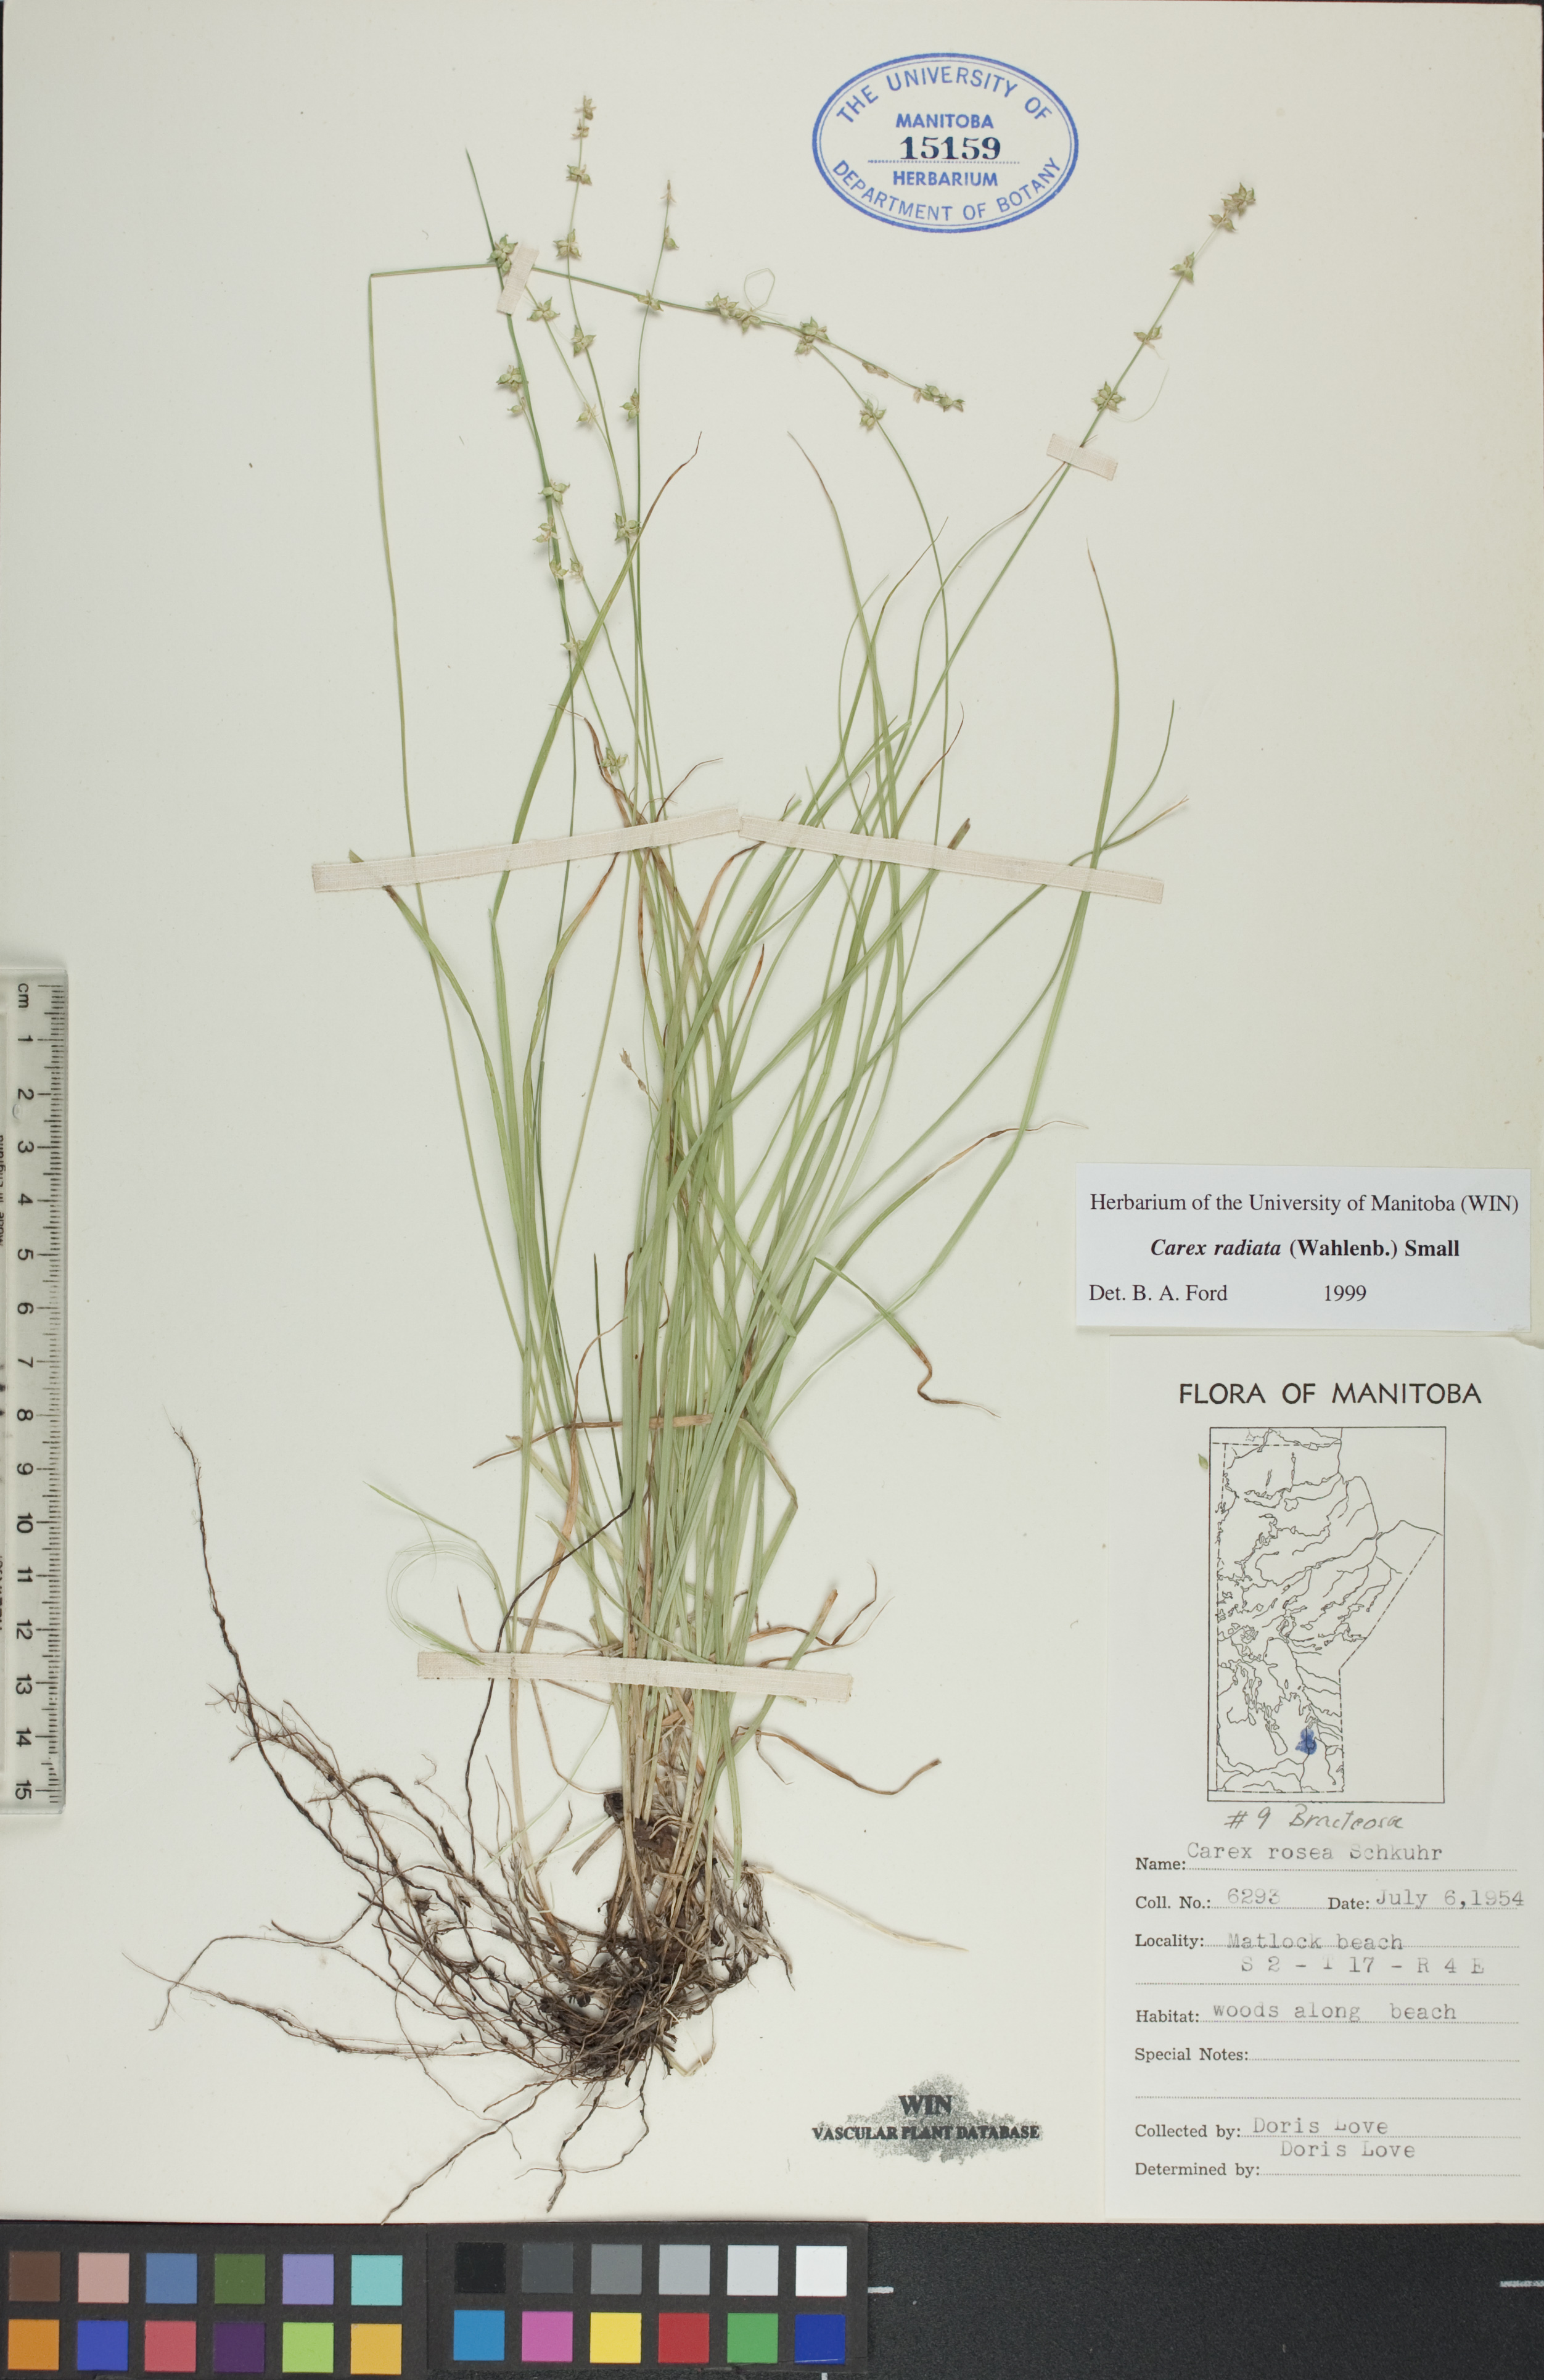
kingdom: Plantae
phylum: Tracheophyta
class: Liliopsida
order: Poales
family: Cyperaceae
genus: Carex
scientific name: Carex radiata
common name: Eastern star sedge
